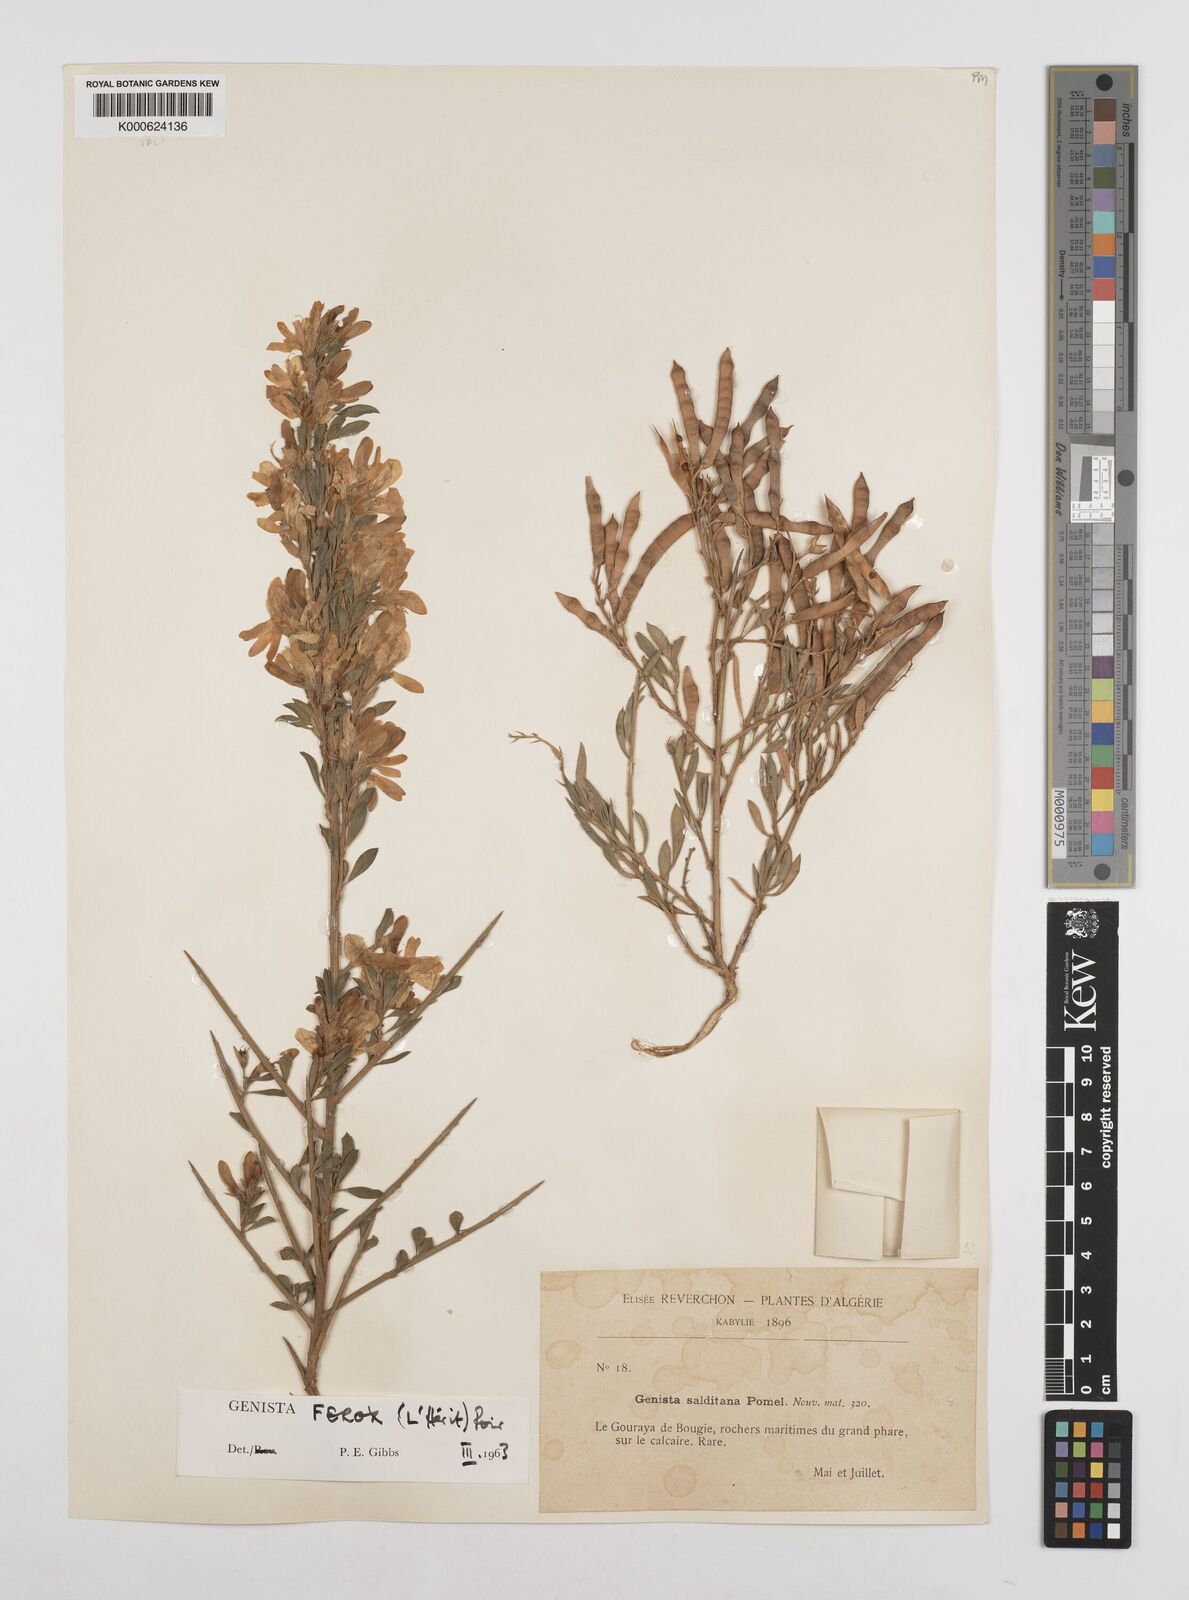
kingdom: Plantae
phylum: Tracheophyta
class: Magnoliopsida
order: Fabales
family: Fabaceae
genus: Genista
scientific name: Genista ferox
